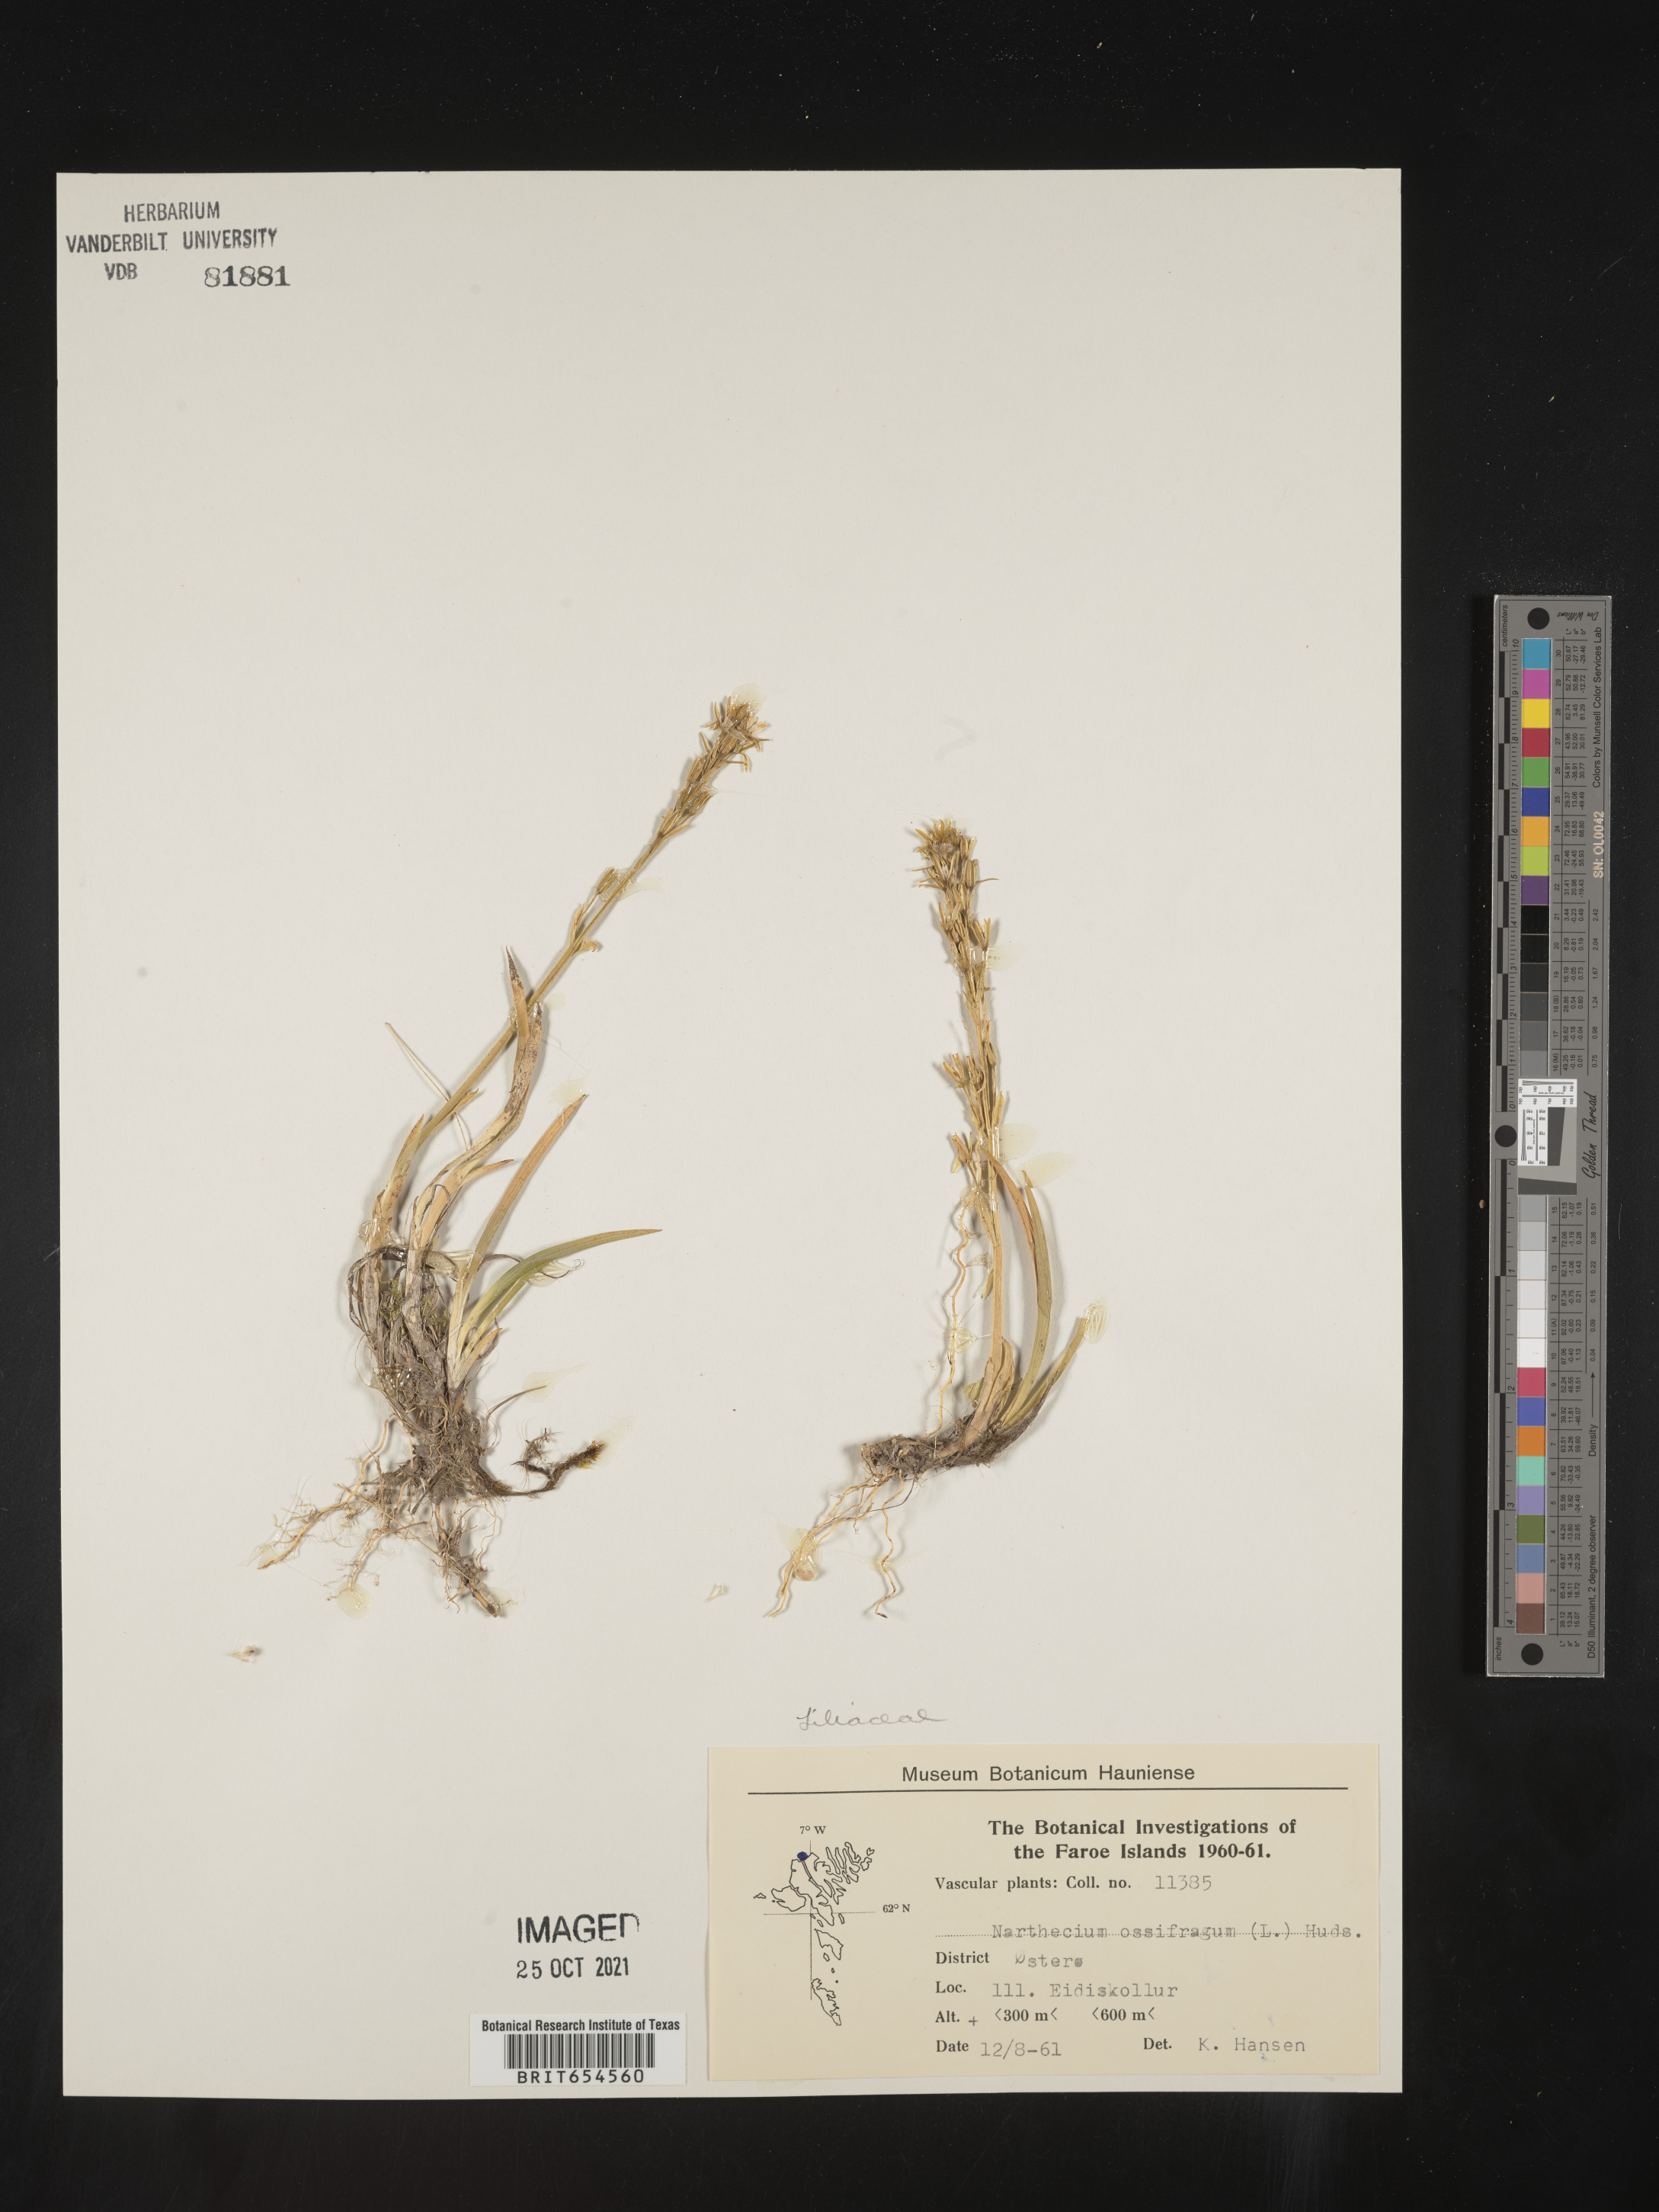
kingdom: Plantae
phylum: Tracheophyta
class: Liliopsida
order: Dioscoreales
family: Nartheciaceae
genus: Narthecium
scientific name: Narthecium
